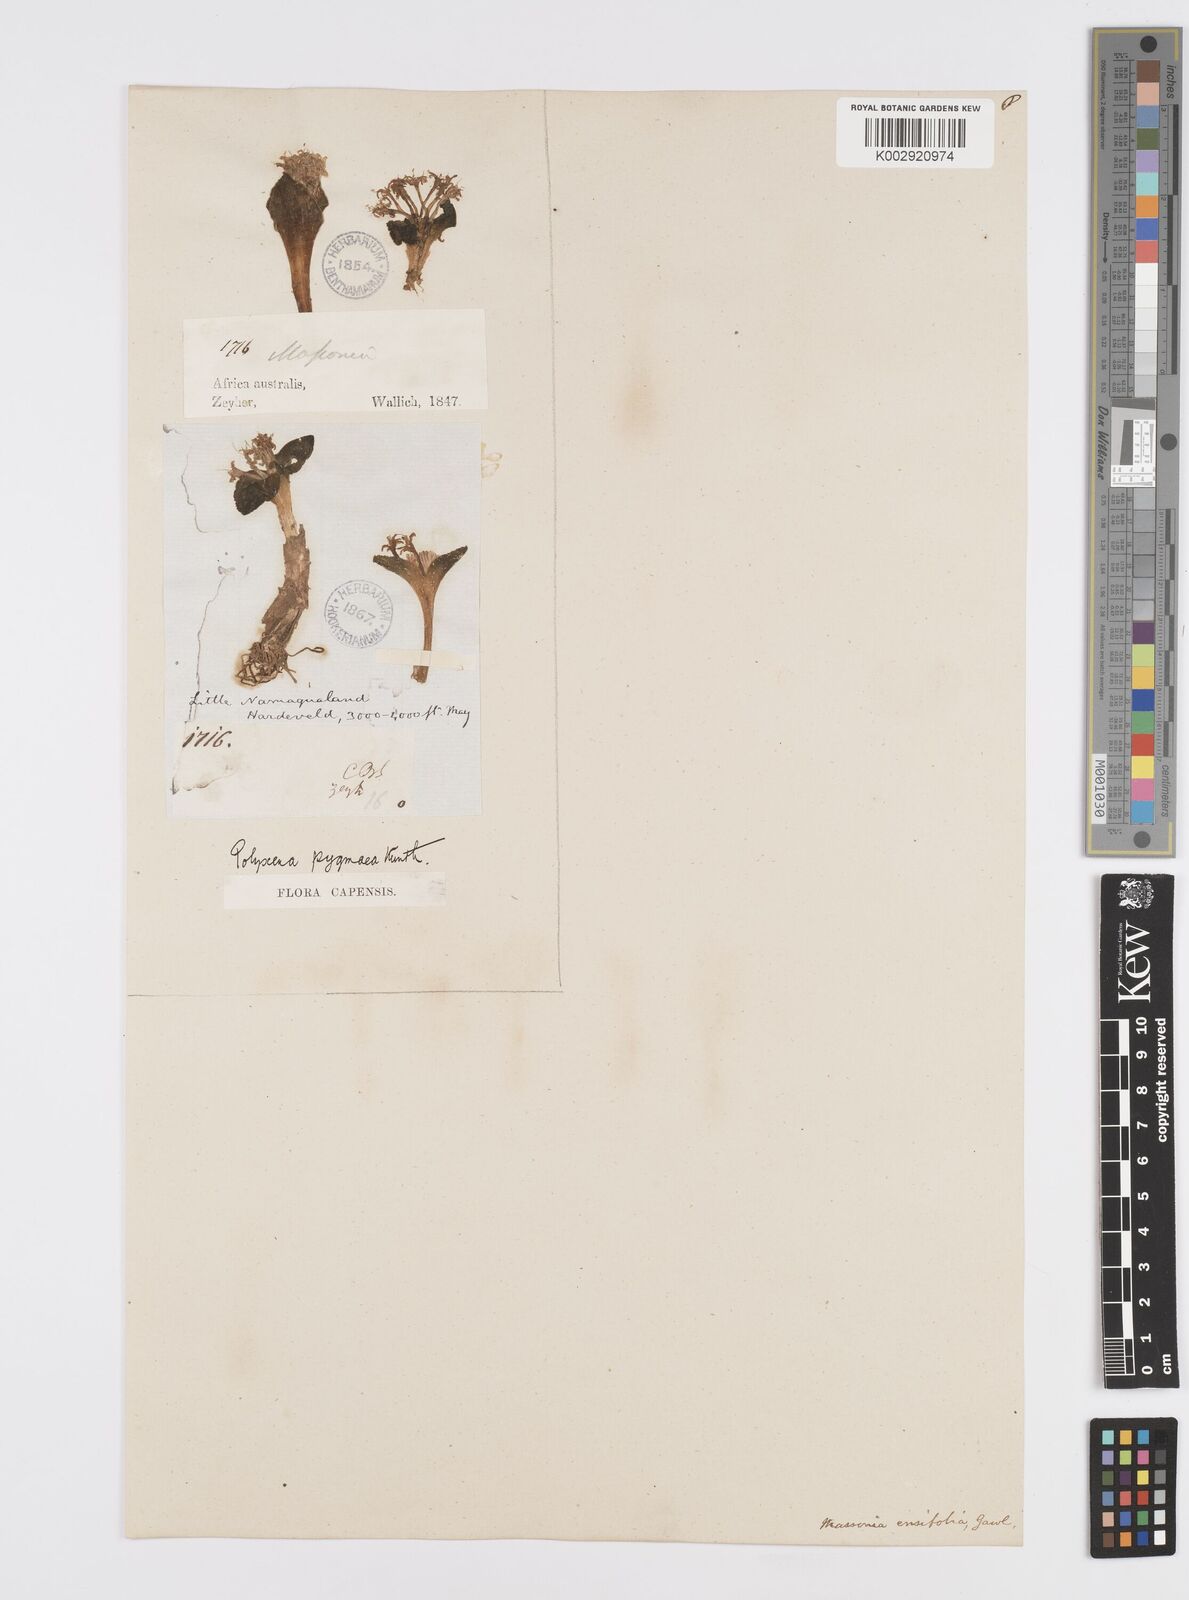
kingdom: Plantae
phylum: Tracheophyta
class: Liliopsida
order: Asparagales
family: Asparagaceae
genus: Lachenalia
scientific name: Lachenalia ensifolia
